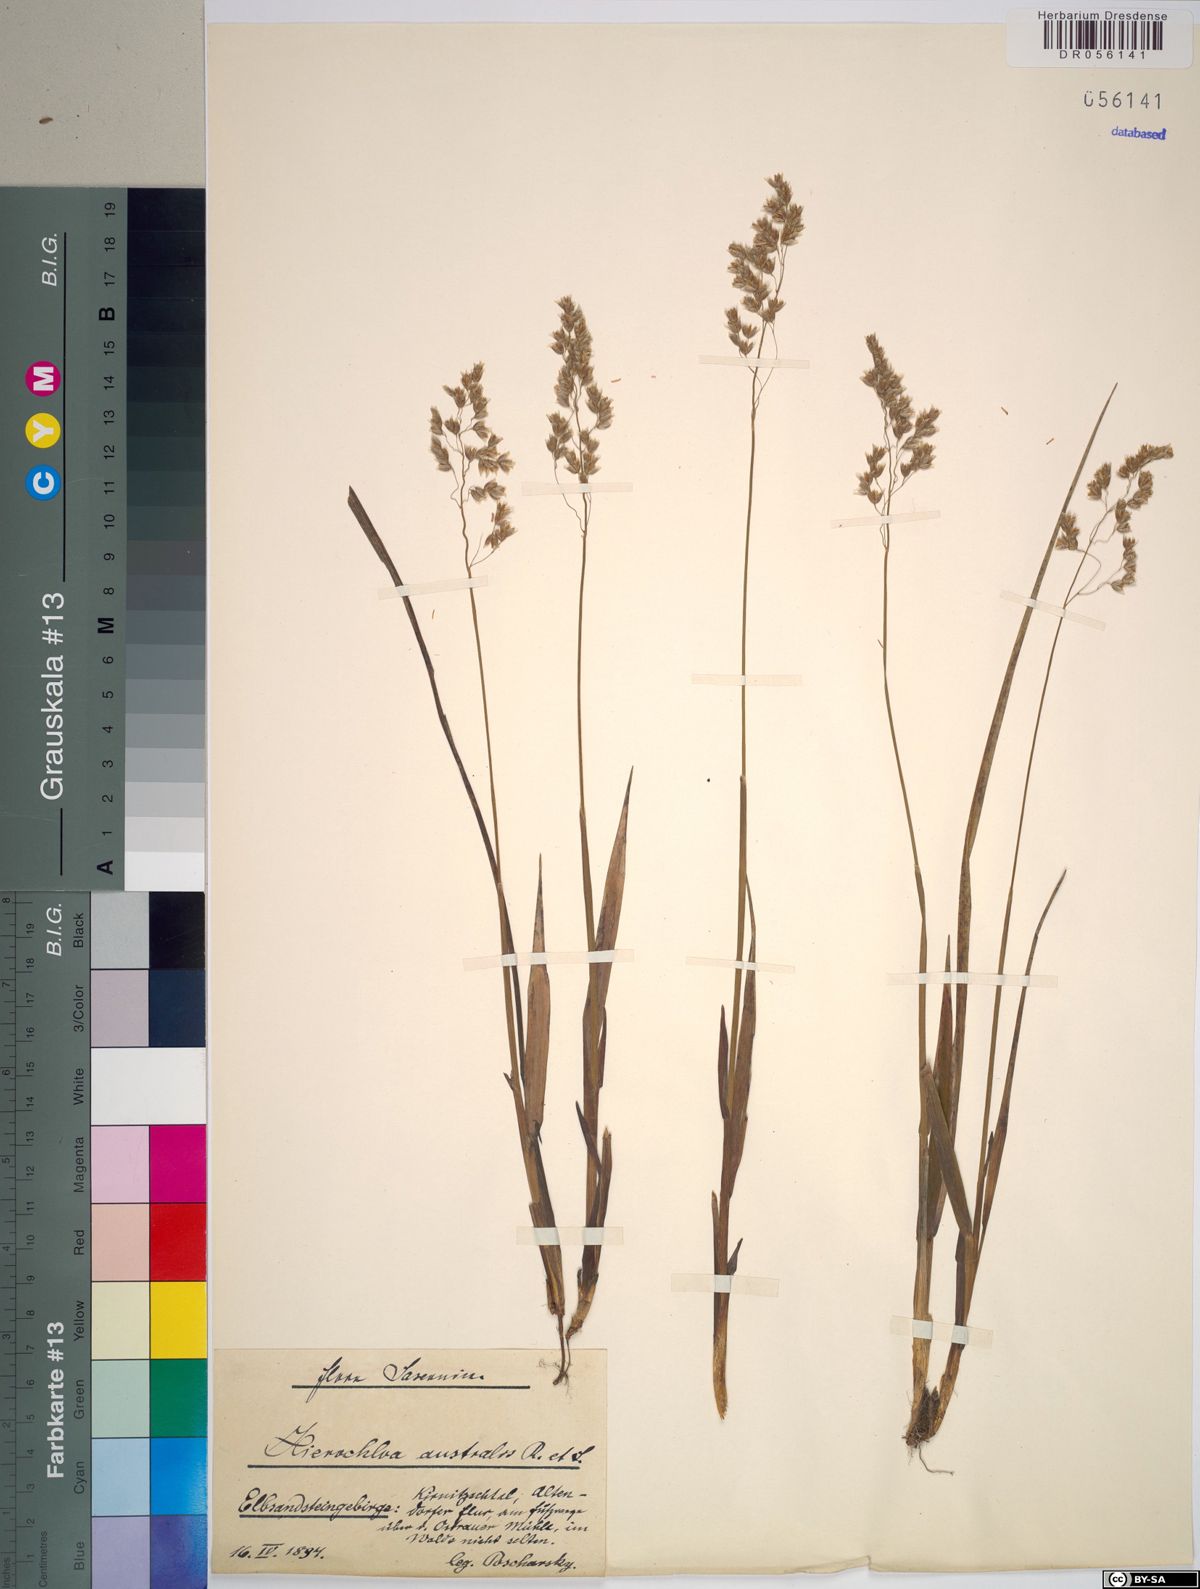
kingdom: Plantae
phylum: Tracheophyta
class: Liliopsida
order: Poales
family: Poaceae
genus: Anthoxanthum
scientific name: Anthoxanthum australe
